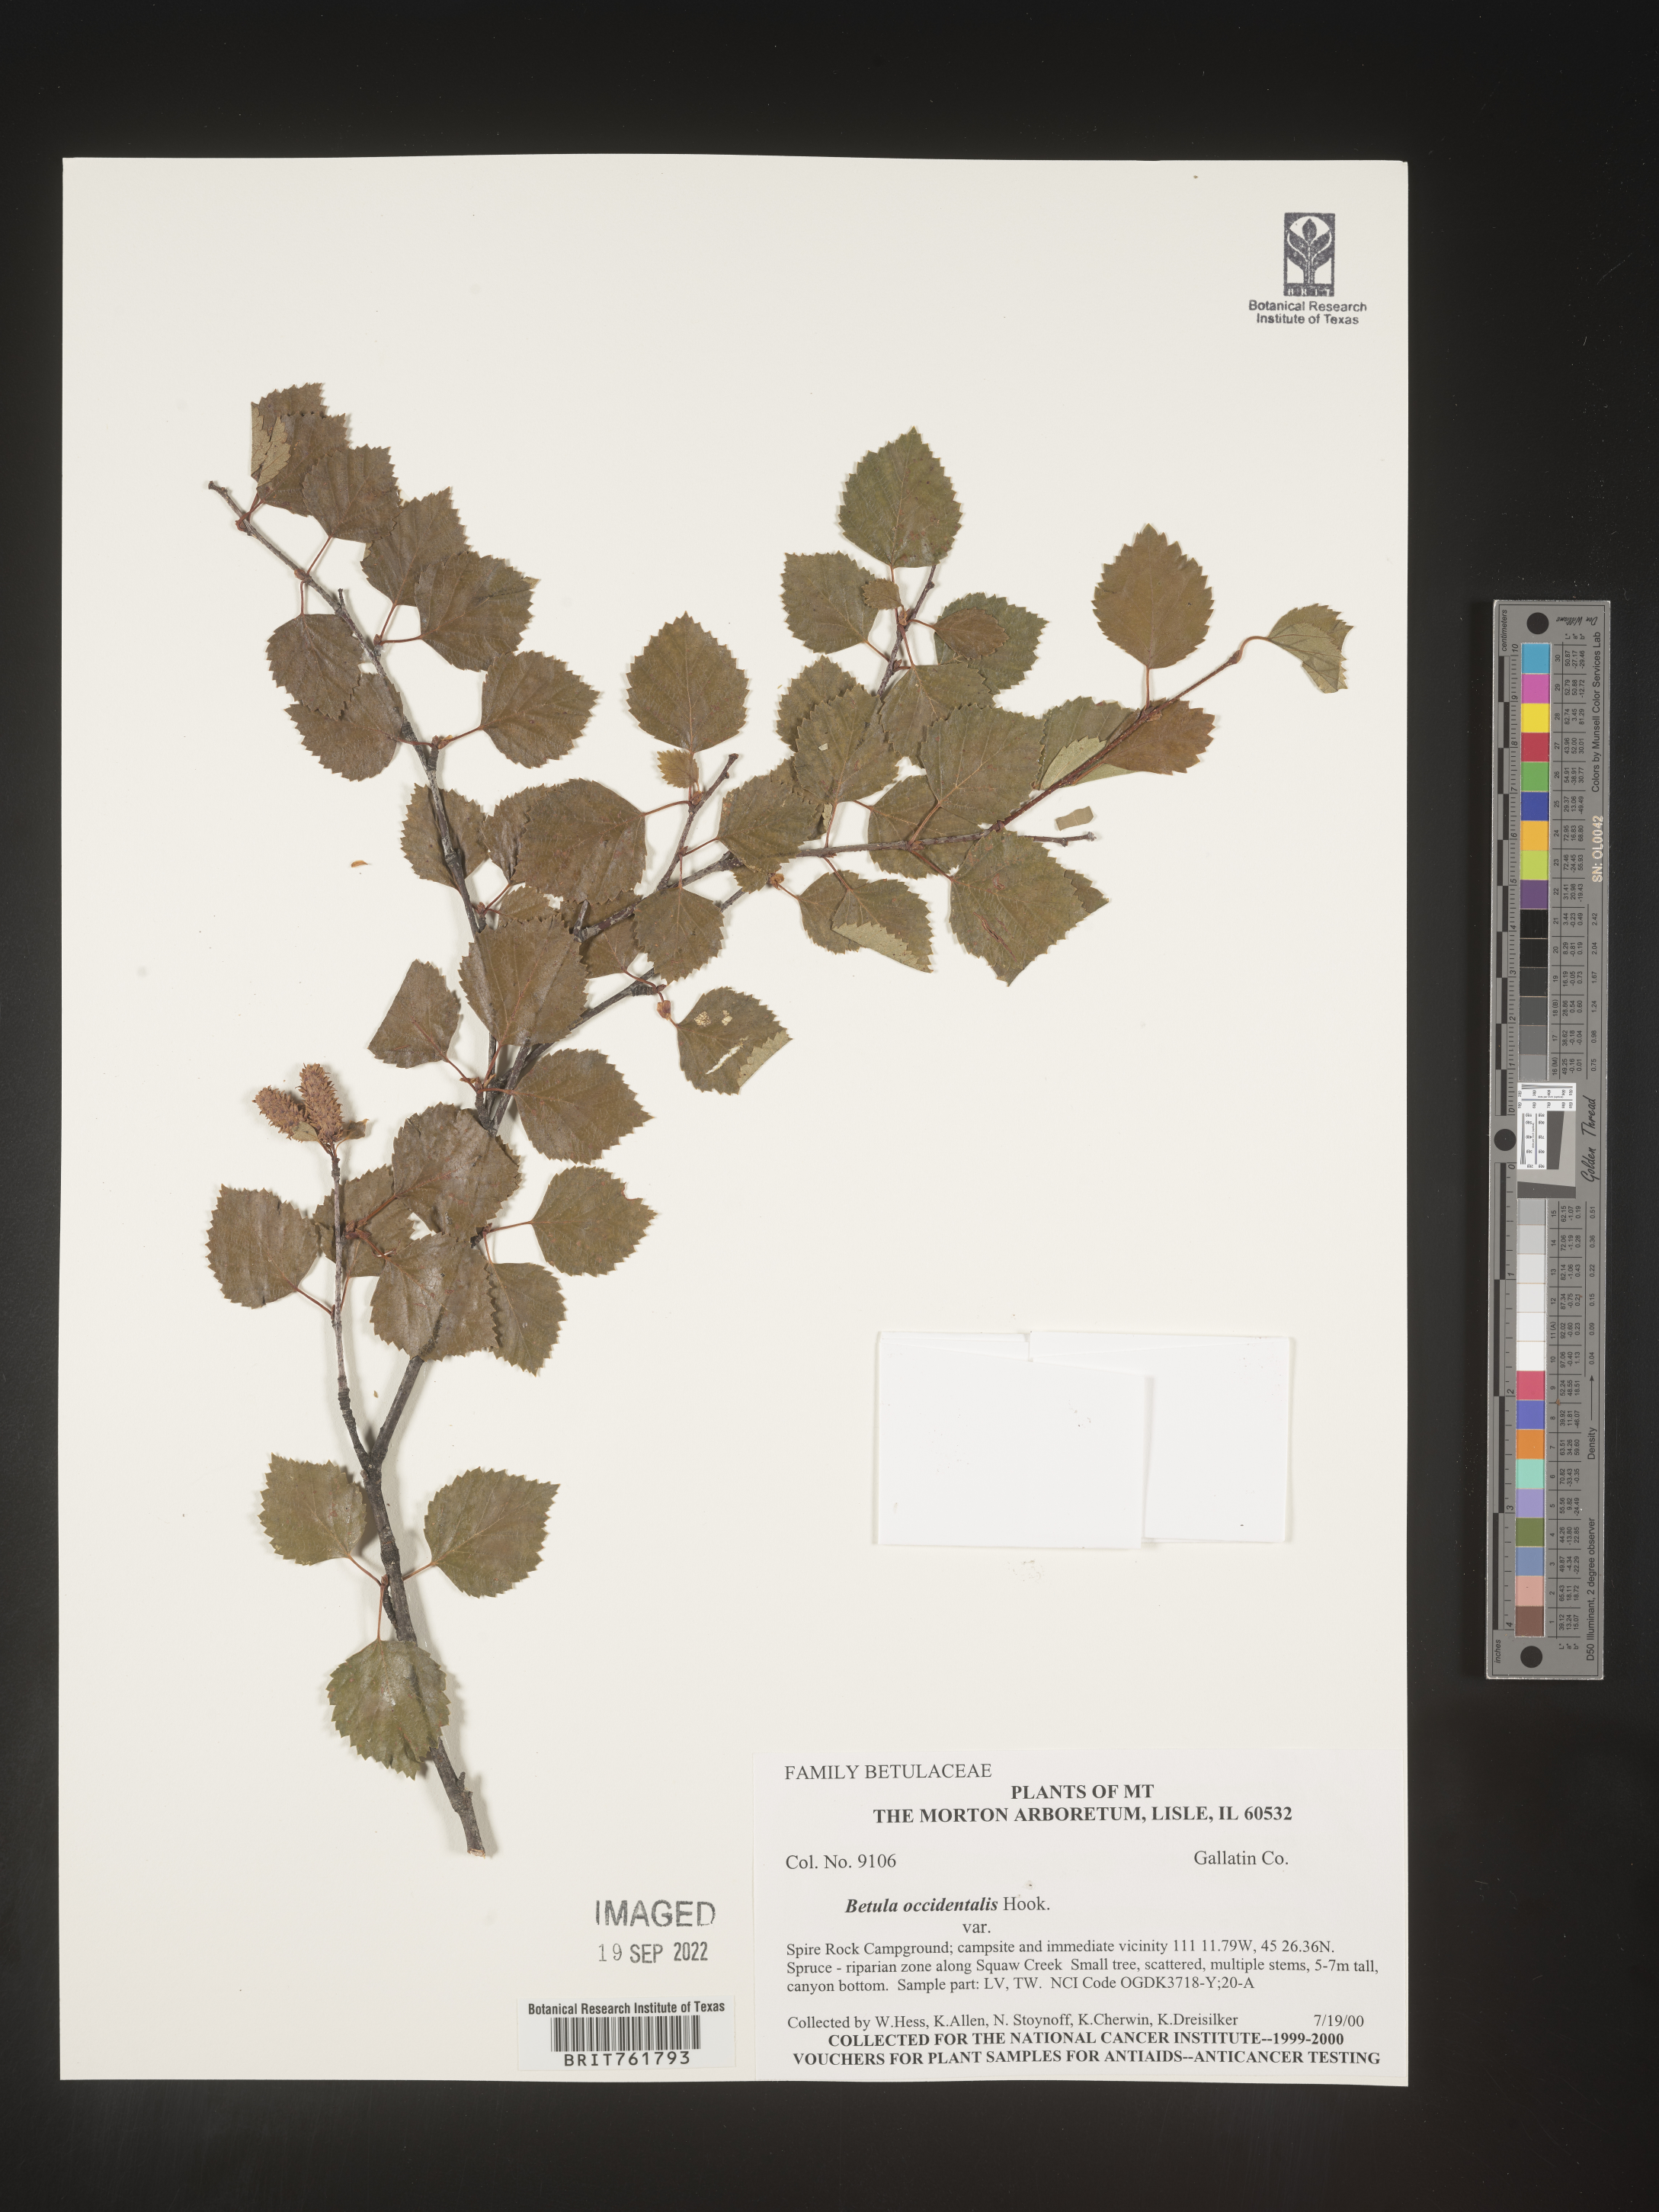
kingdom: Plantae
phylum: Tracheophyta
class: Magnoliopsida
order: Fagales
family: Betulaceae
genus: Betula
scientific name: Betula occidentalis
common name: River birch
